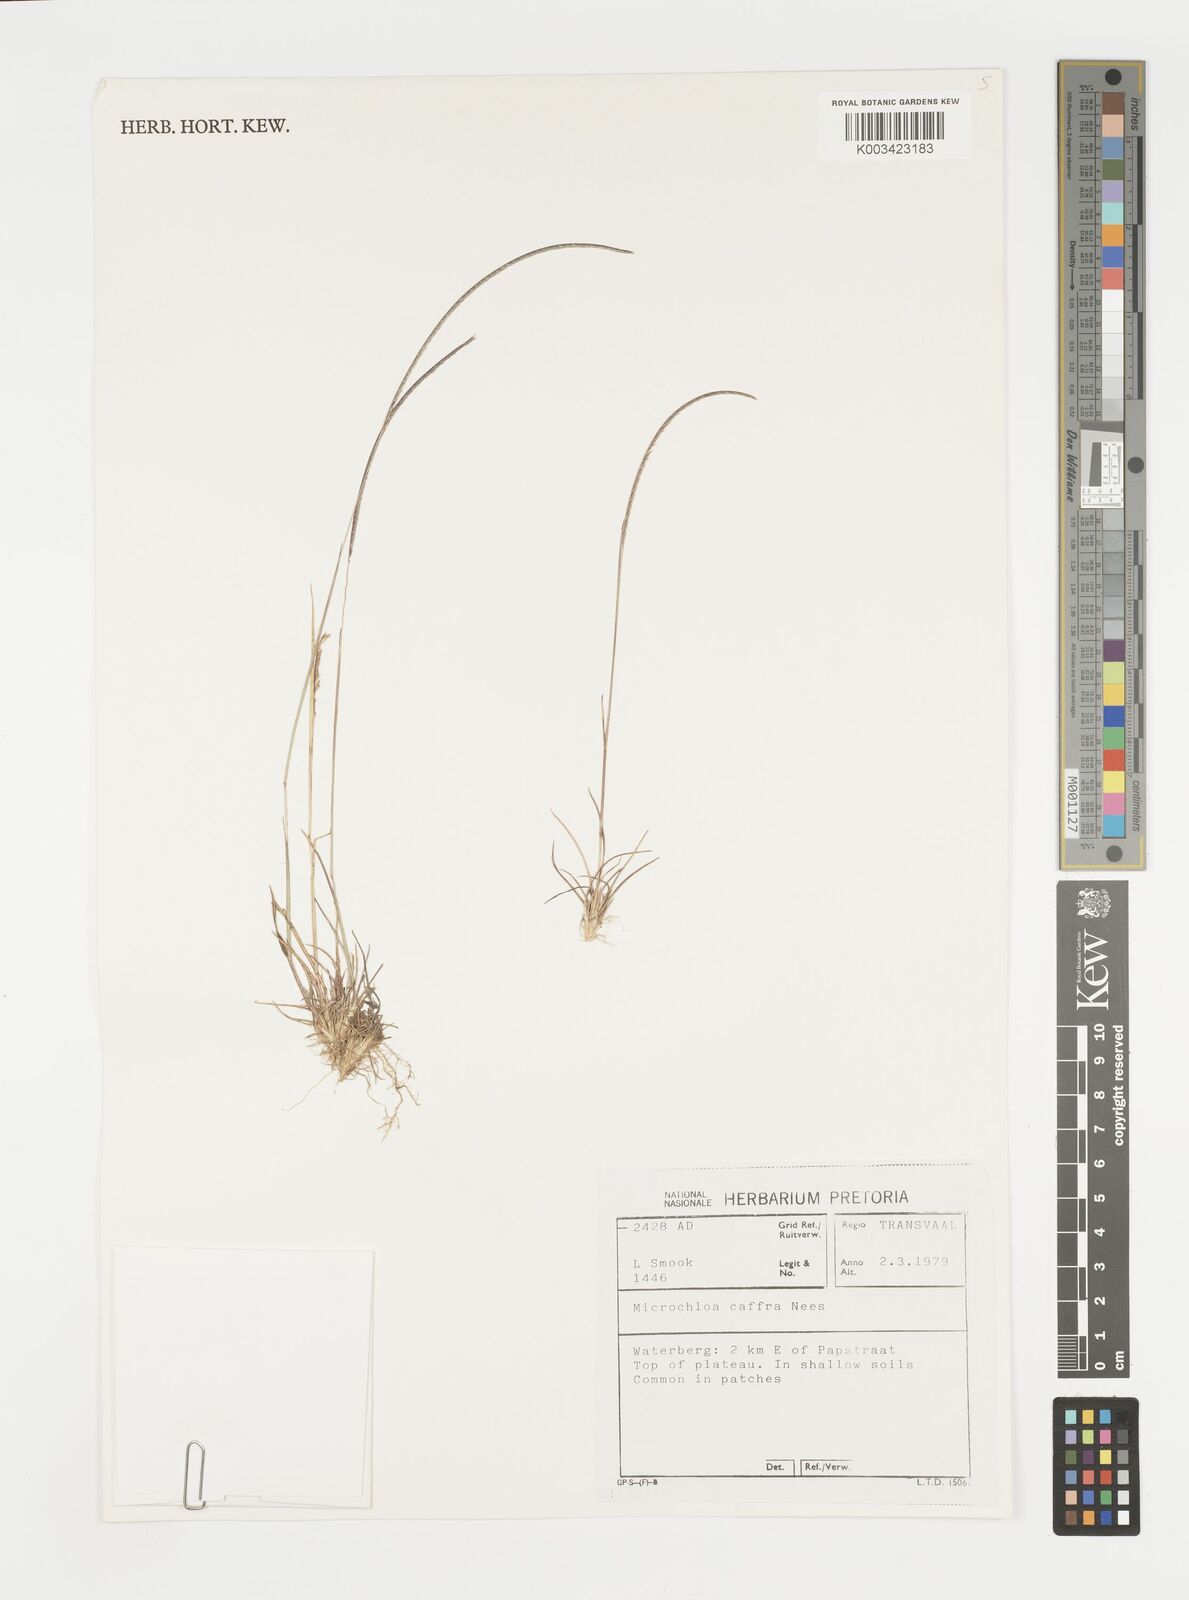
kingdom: Plantae
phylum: Tracheophyta
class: Liliopsida
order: Poales
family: Poaceae
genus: Microchloa
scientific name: Microchloa caffra
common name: Pincushion grass
